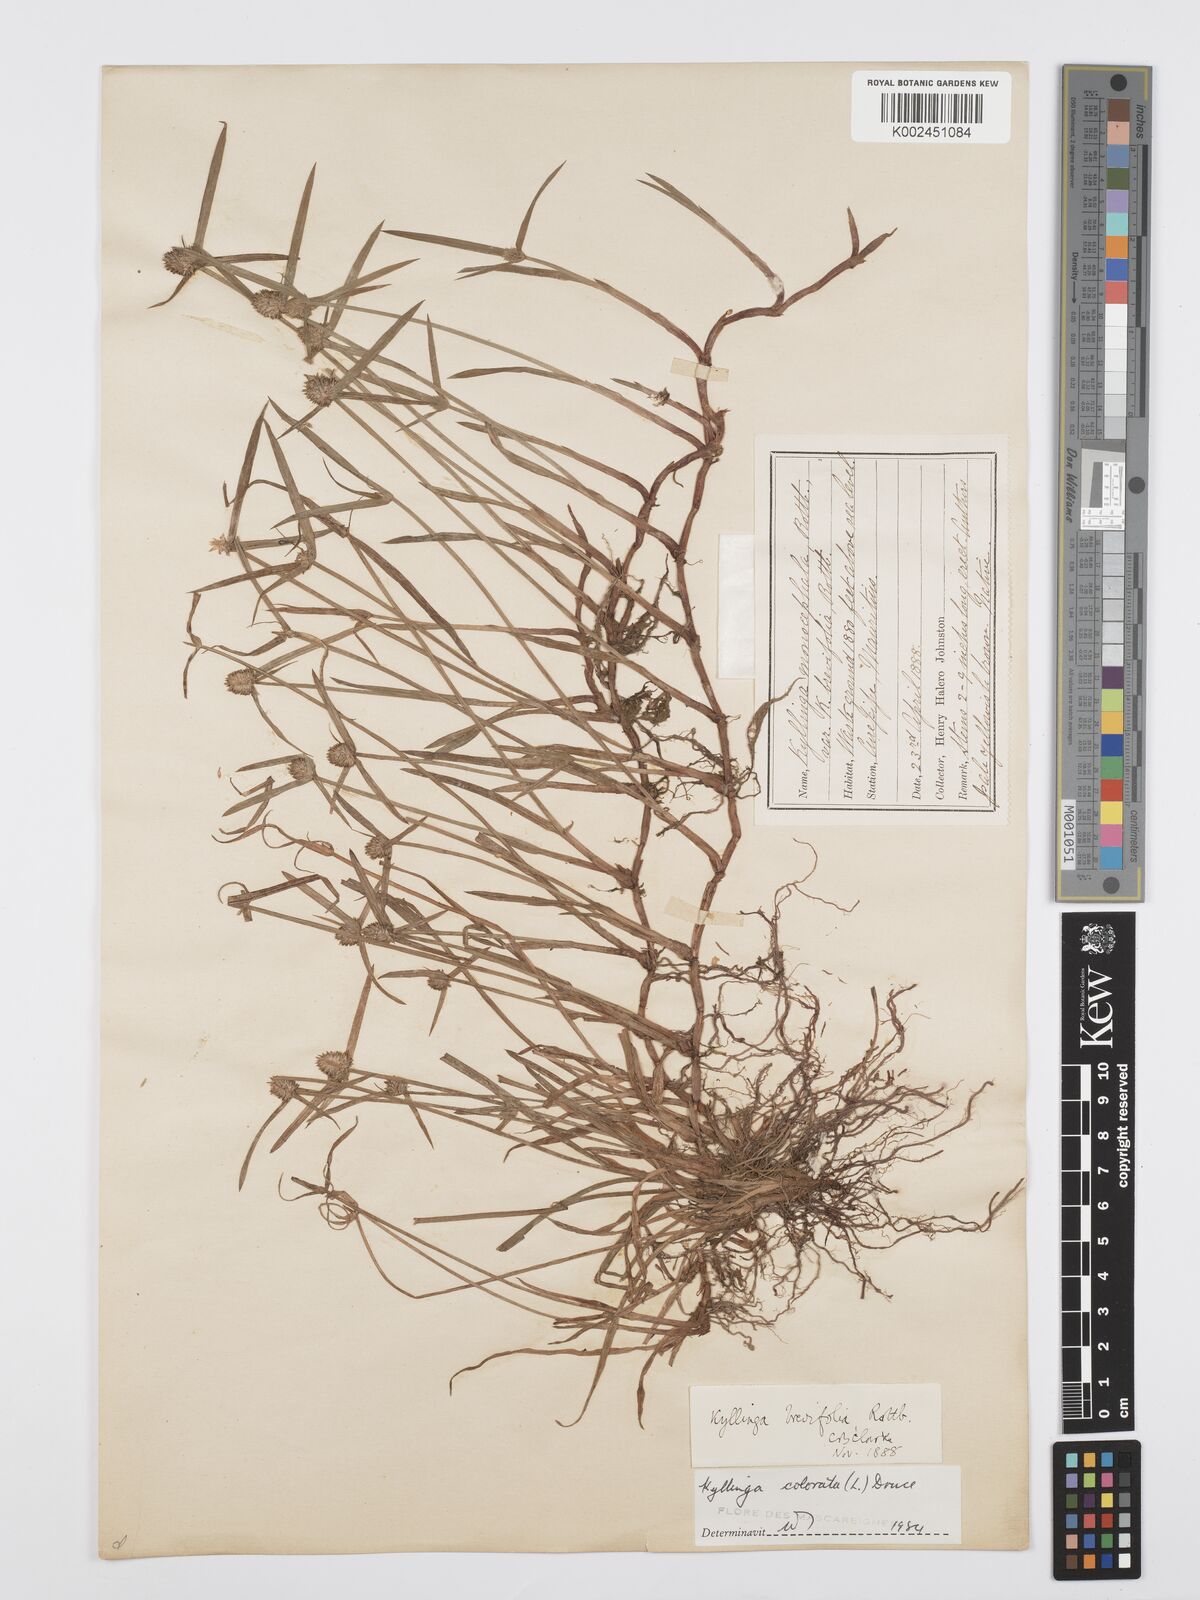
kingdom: Plantae
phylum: Tracheophyta
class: Liliopsida
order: Poales
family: Cyperaceae
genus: Cyperus
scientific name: Cyperus brevifolius
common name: Globe kyllinga
